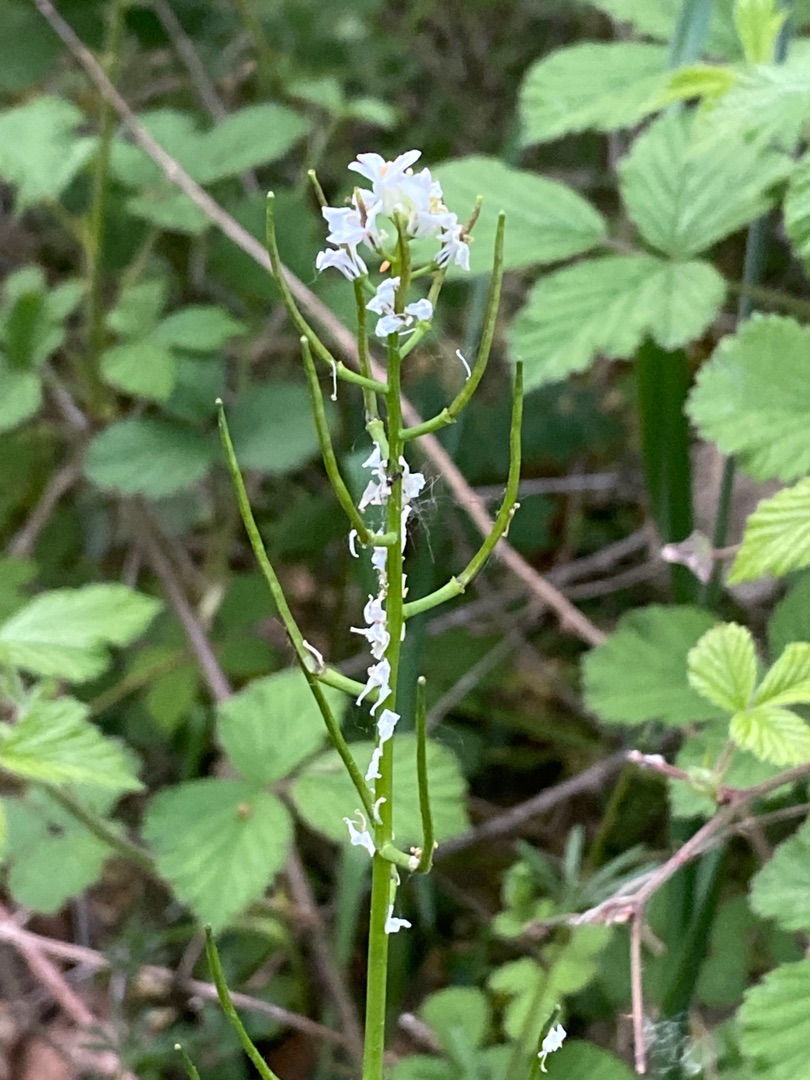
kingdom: Plantae
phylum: Tracheophyta
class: Magnoliopsida
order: Brassicales
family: Brassicaceae
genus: Alliaria
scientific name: Alliaria petiolata
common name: Løgkarse
